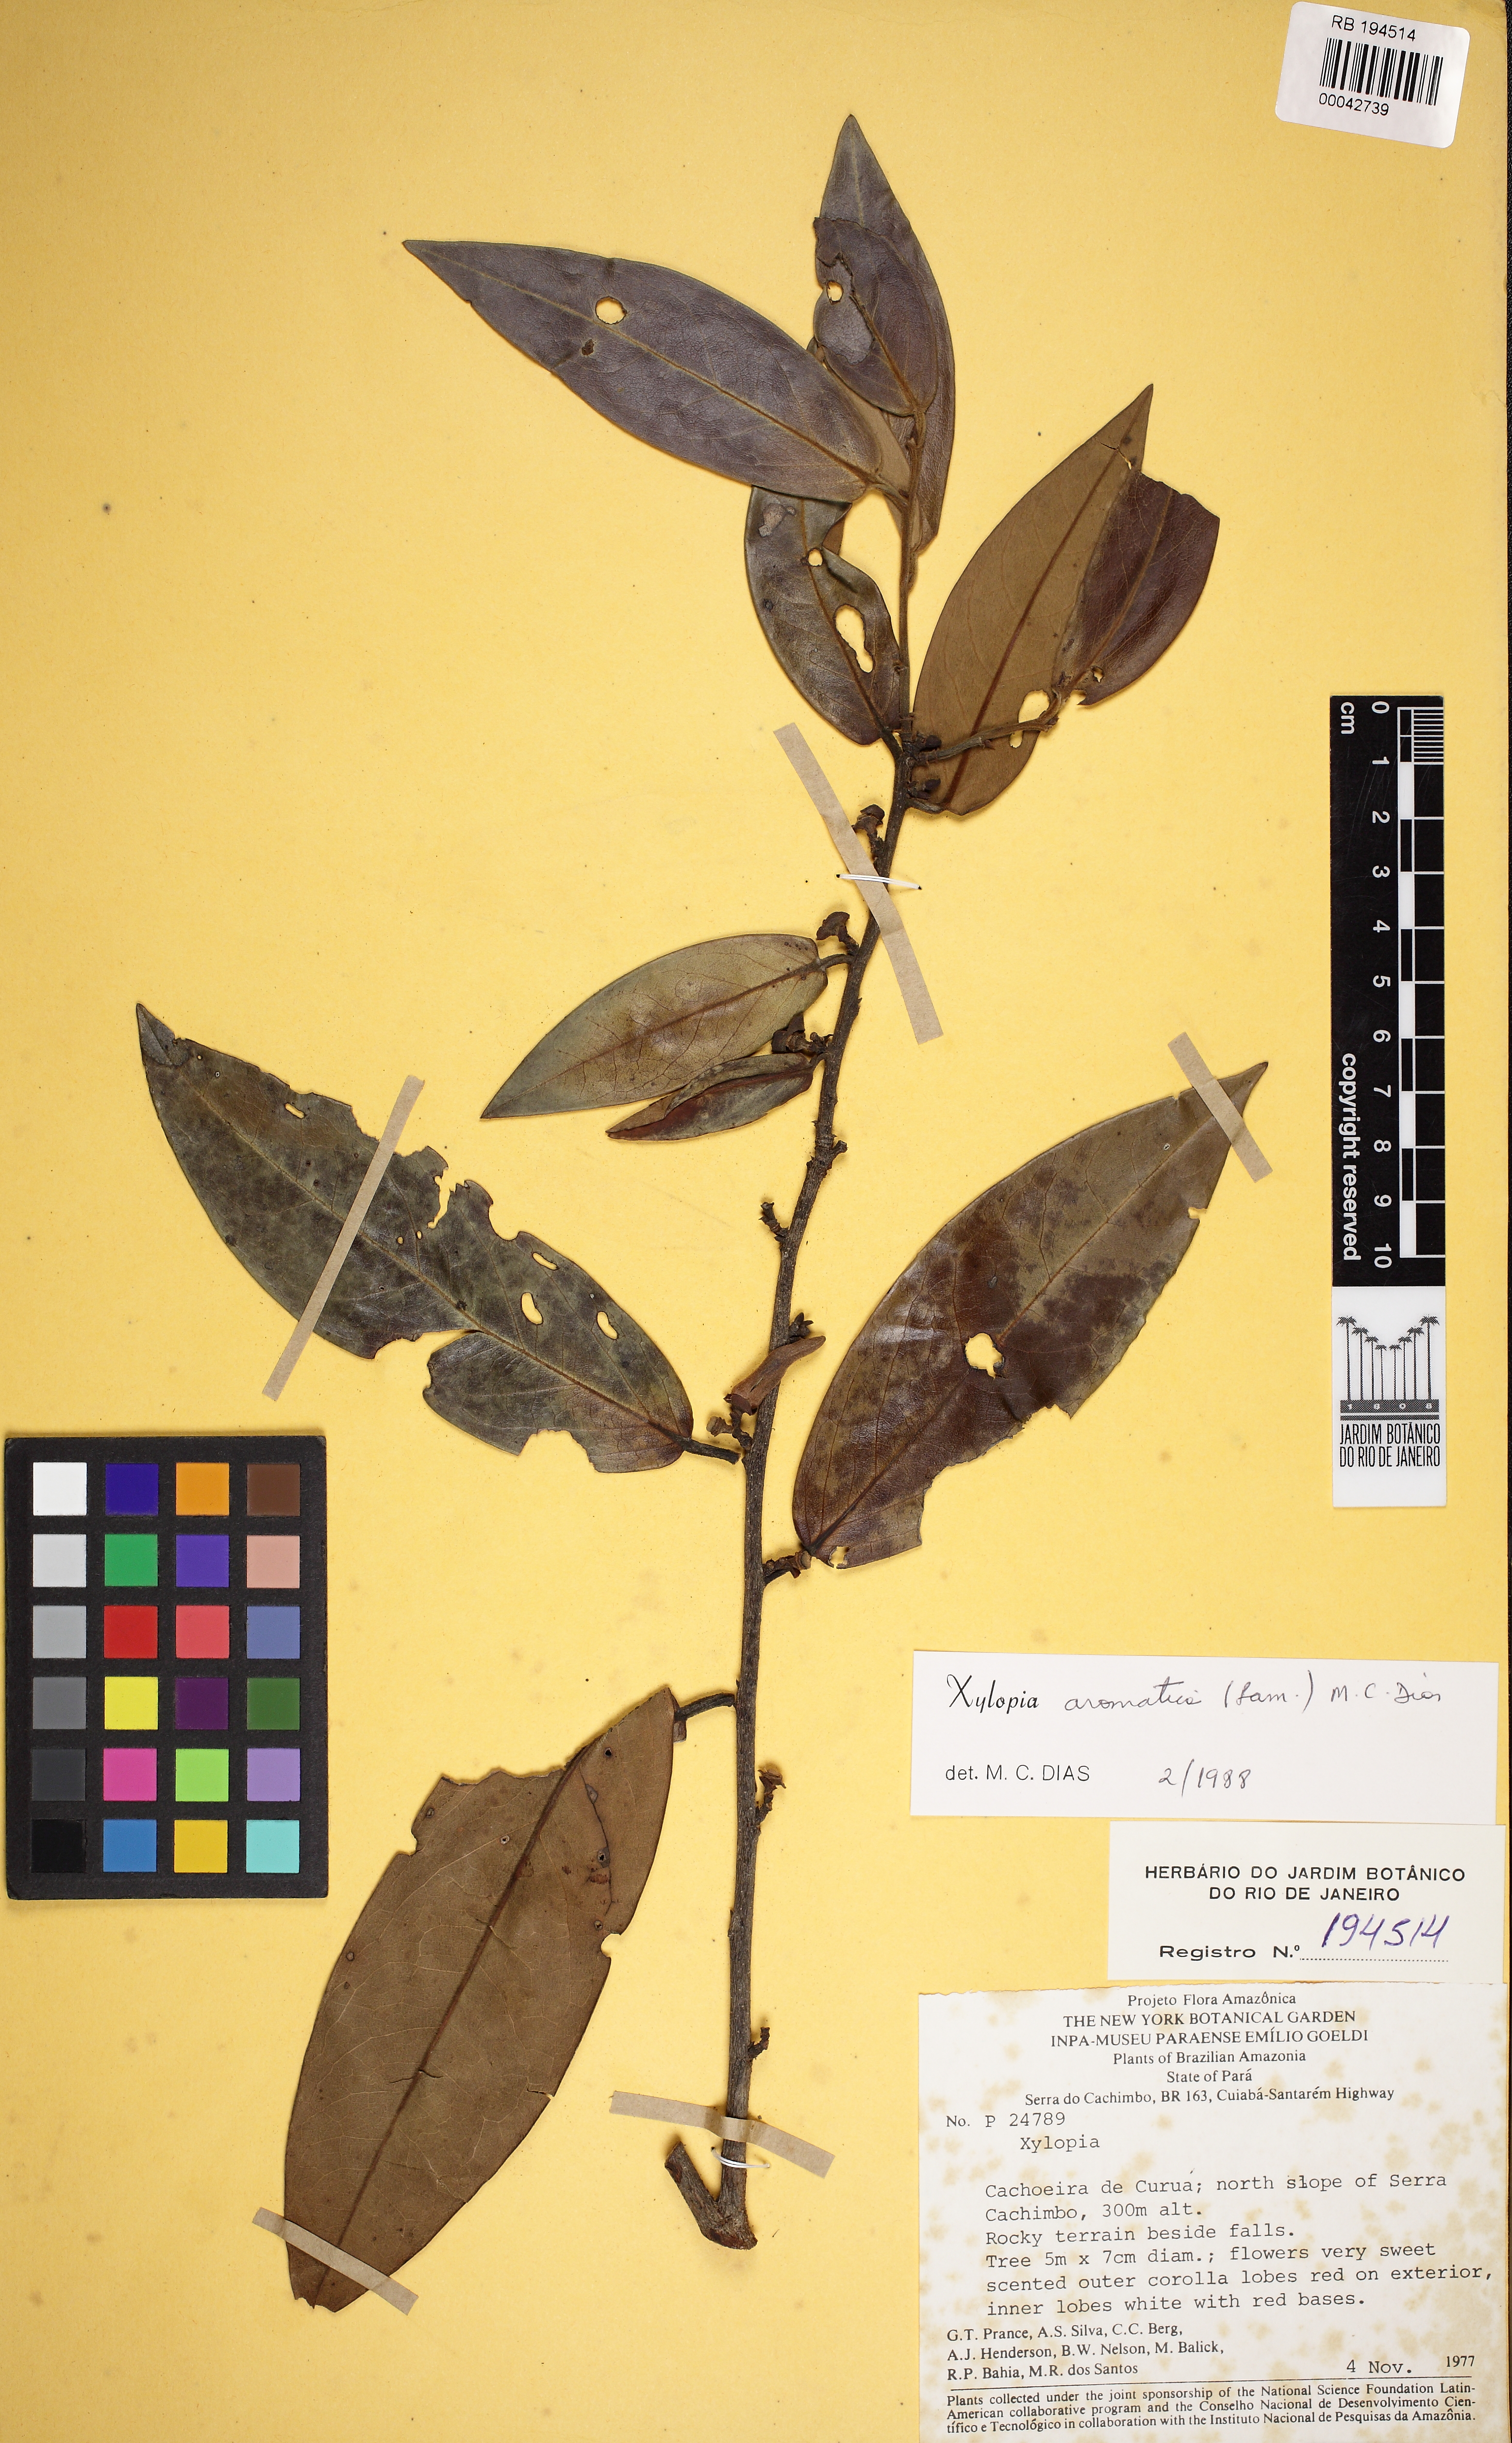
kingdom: Plantae
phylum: Tracheophyta
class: Magnoliopsida
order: Magnoliales
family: Annonaceae
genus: Xylopia
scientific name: Xylopia aromatica
